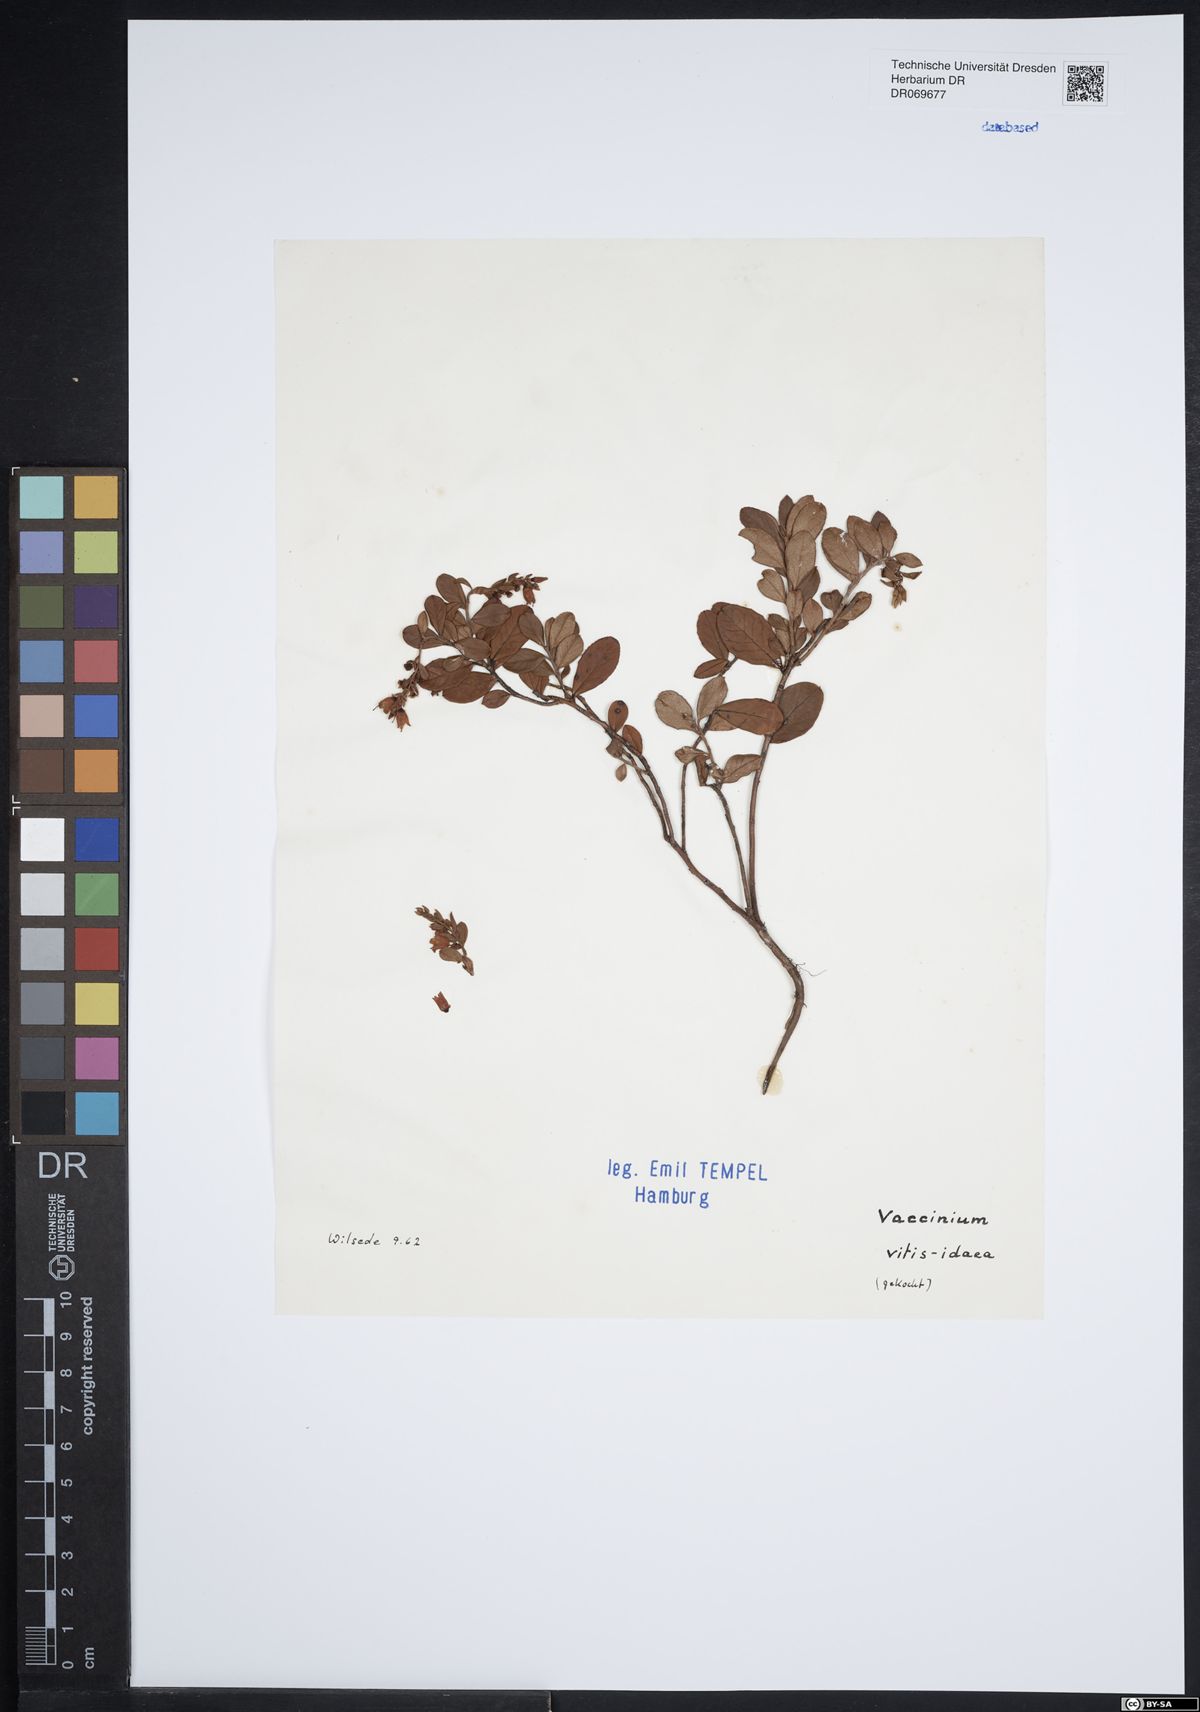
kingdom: Plantae
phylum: Tracheophyta
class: Magnoliopsida
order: Ericales
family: Ericaceae
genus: Vaccinium
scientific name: Vaccinium vitis-idaea
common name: Cowberry
